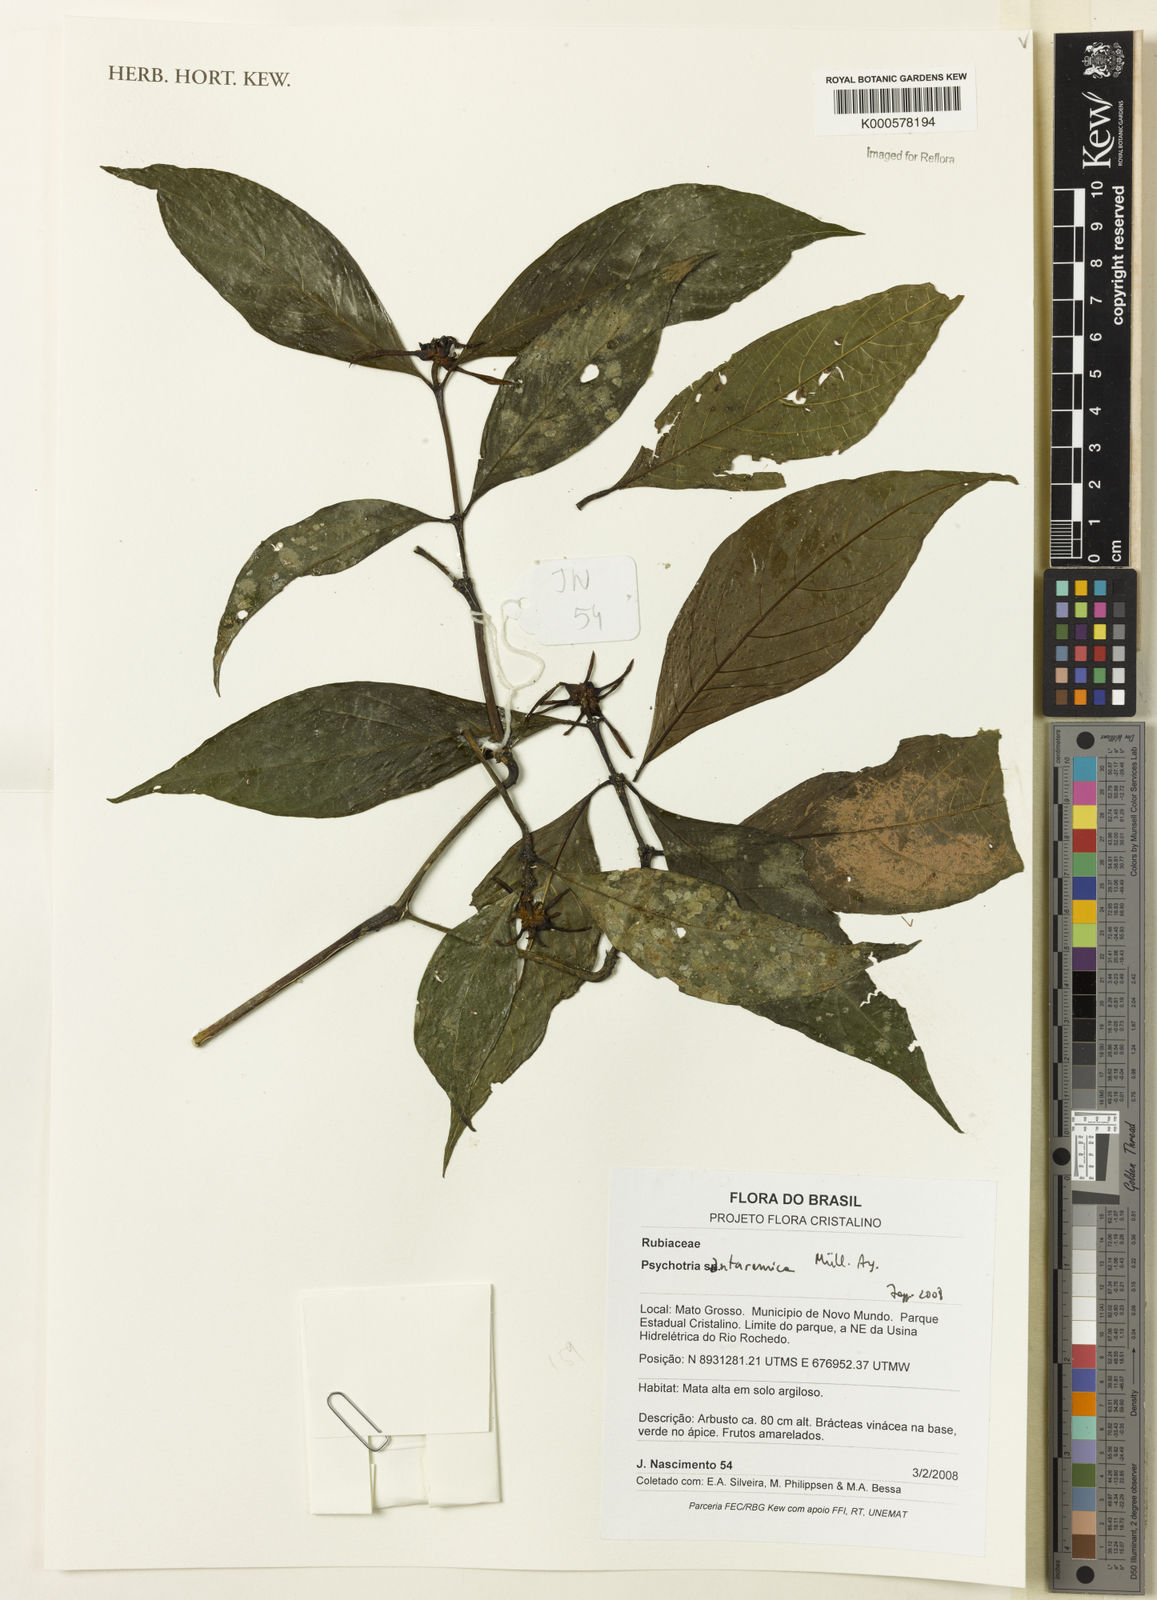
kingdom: Plantae
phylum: Tracheophyta
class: Magnoliopsida
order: Gentianales
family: Rubiaceae
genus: Psychotria
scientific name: Psychotria
